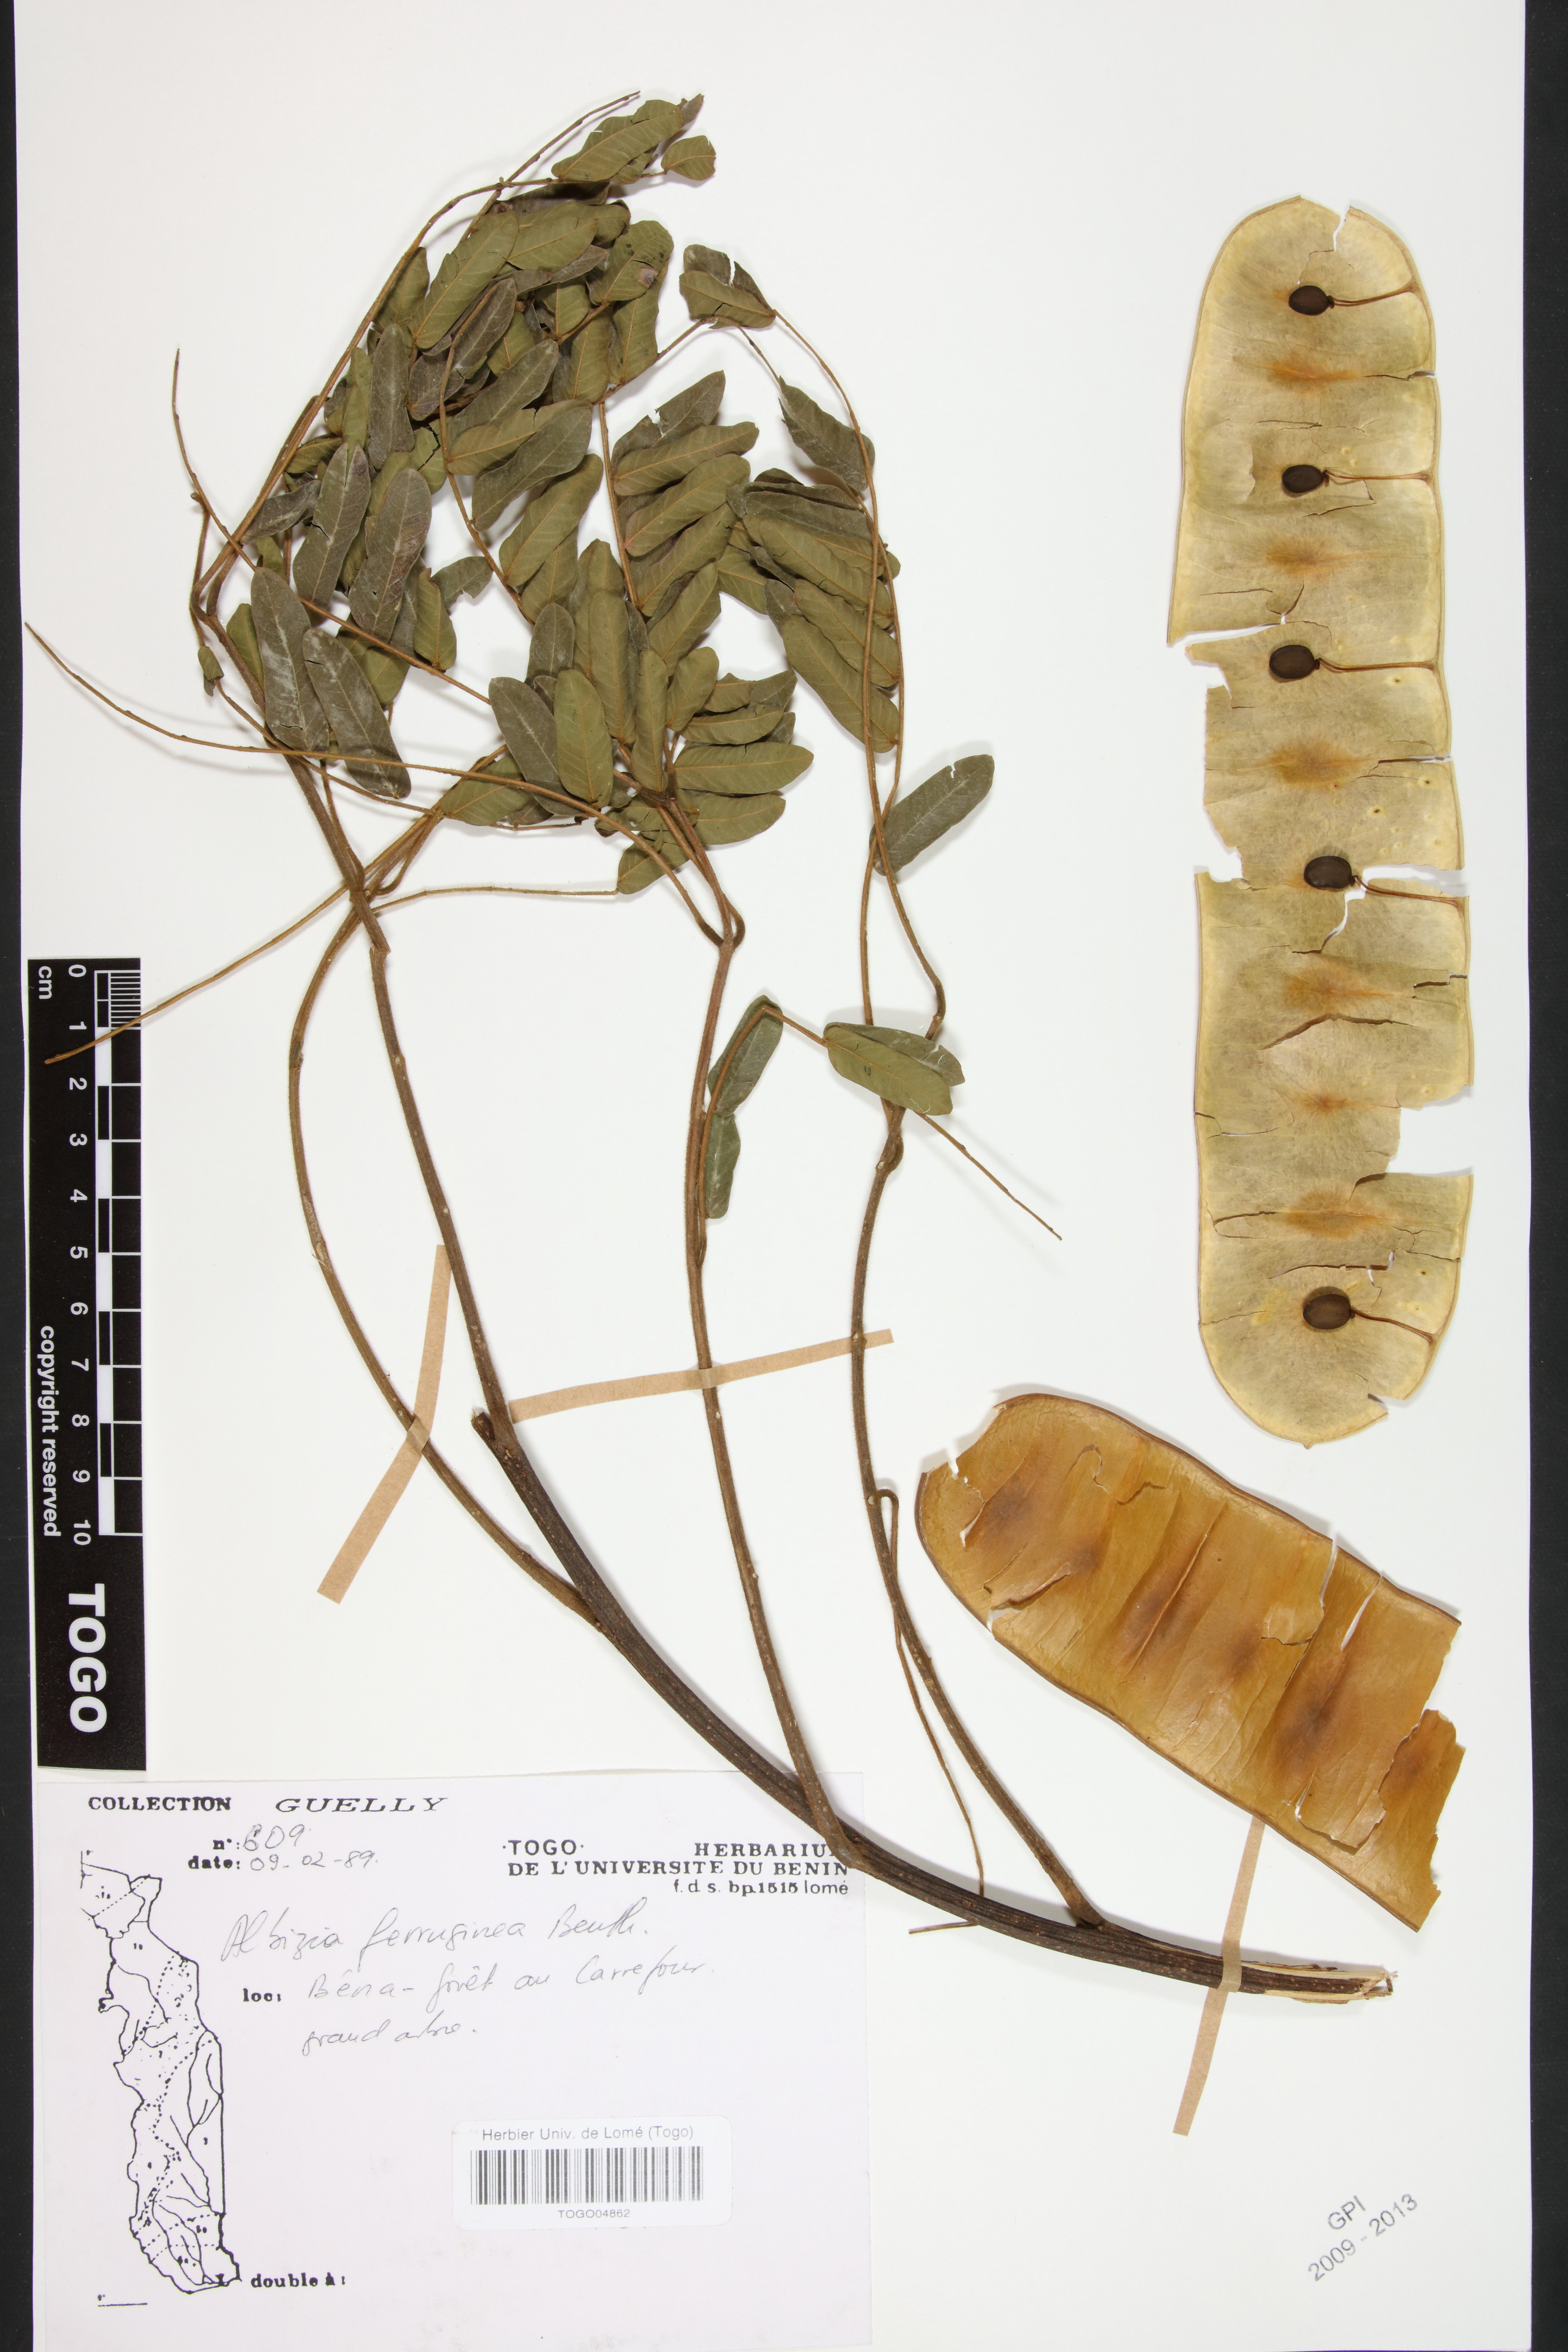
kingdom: Plantae
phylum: Tracheophyta
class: Magnoliopsida
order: Fabales
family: Fabaceae
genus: Albizia
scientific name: Albizia ferruginea
